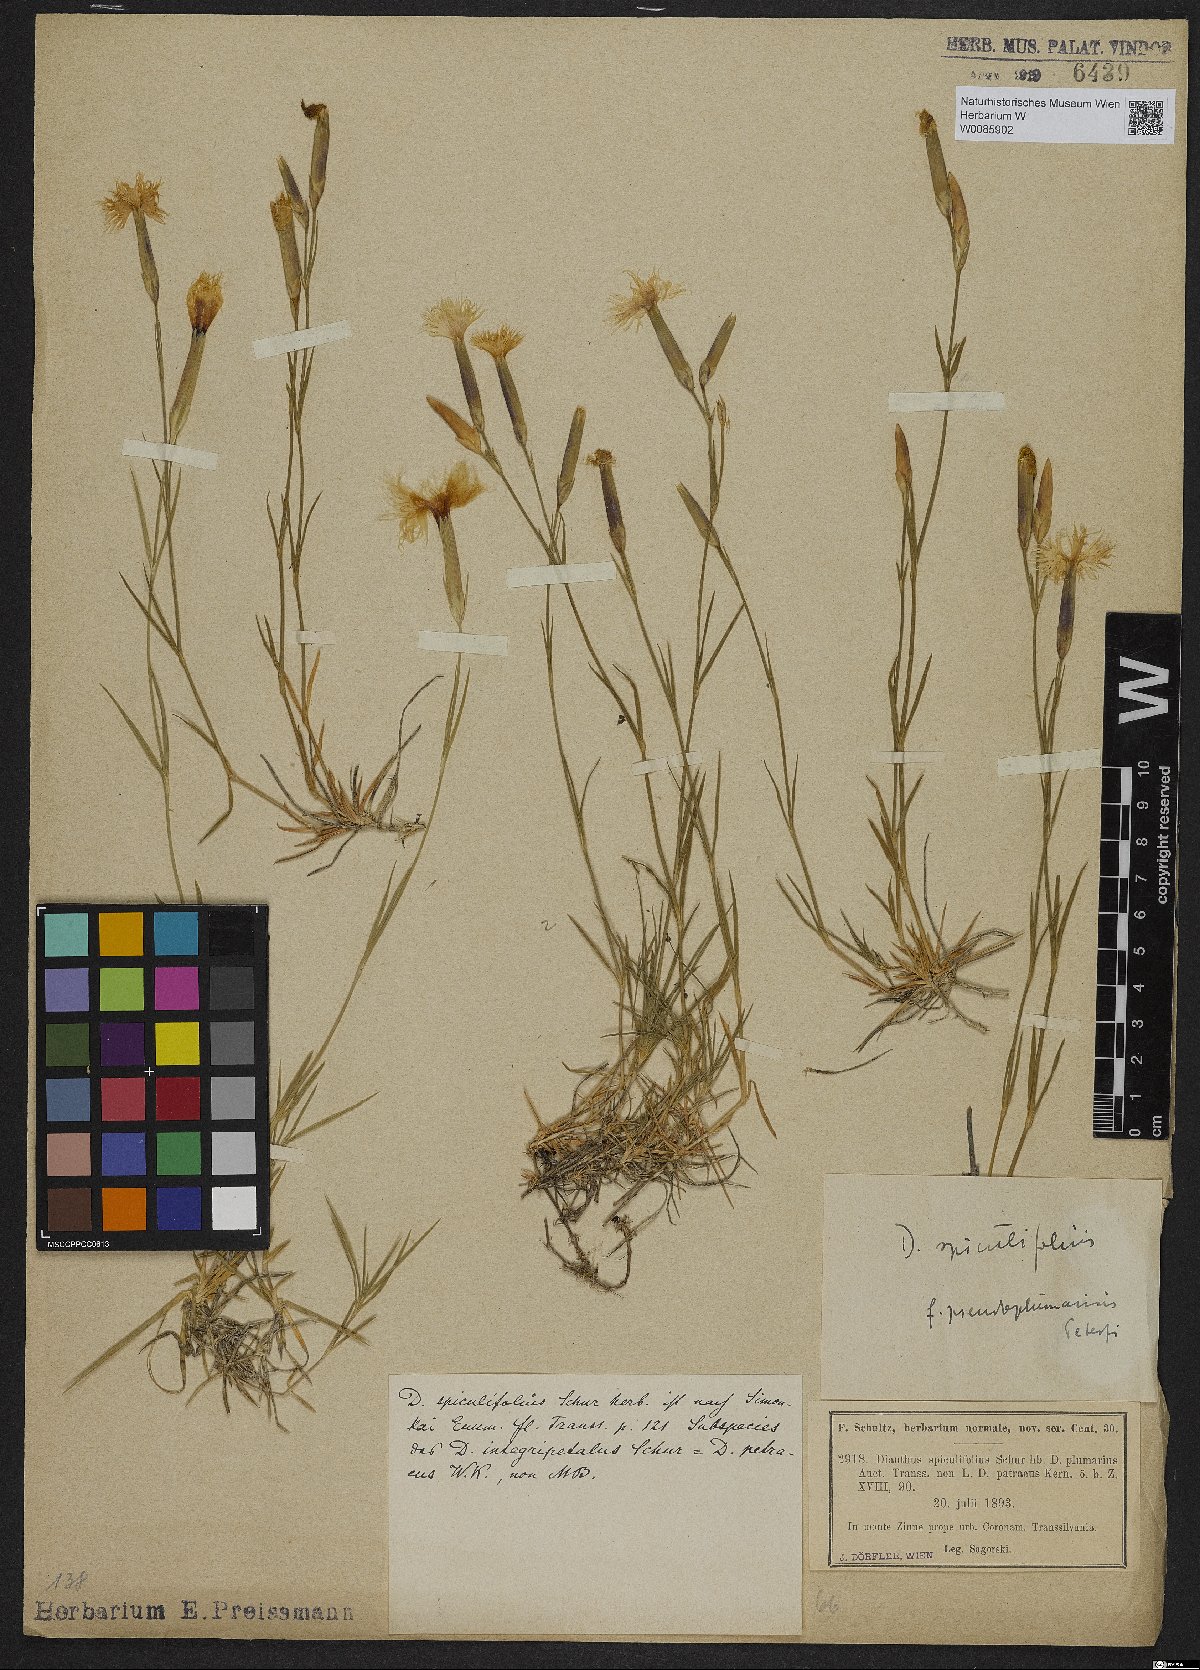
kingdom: Plantae
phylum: Tracheophyta
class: Magnoliopsida
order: Caryophyllales
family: Caryophyllaceae
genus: Dianthus
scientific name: Dianthus spiculifolius
